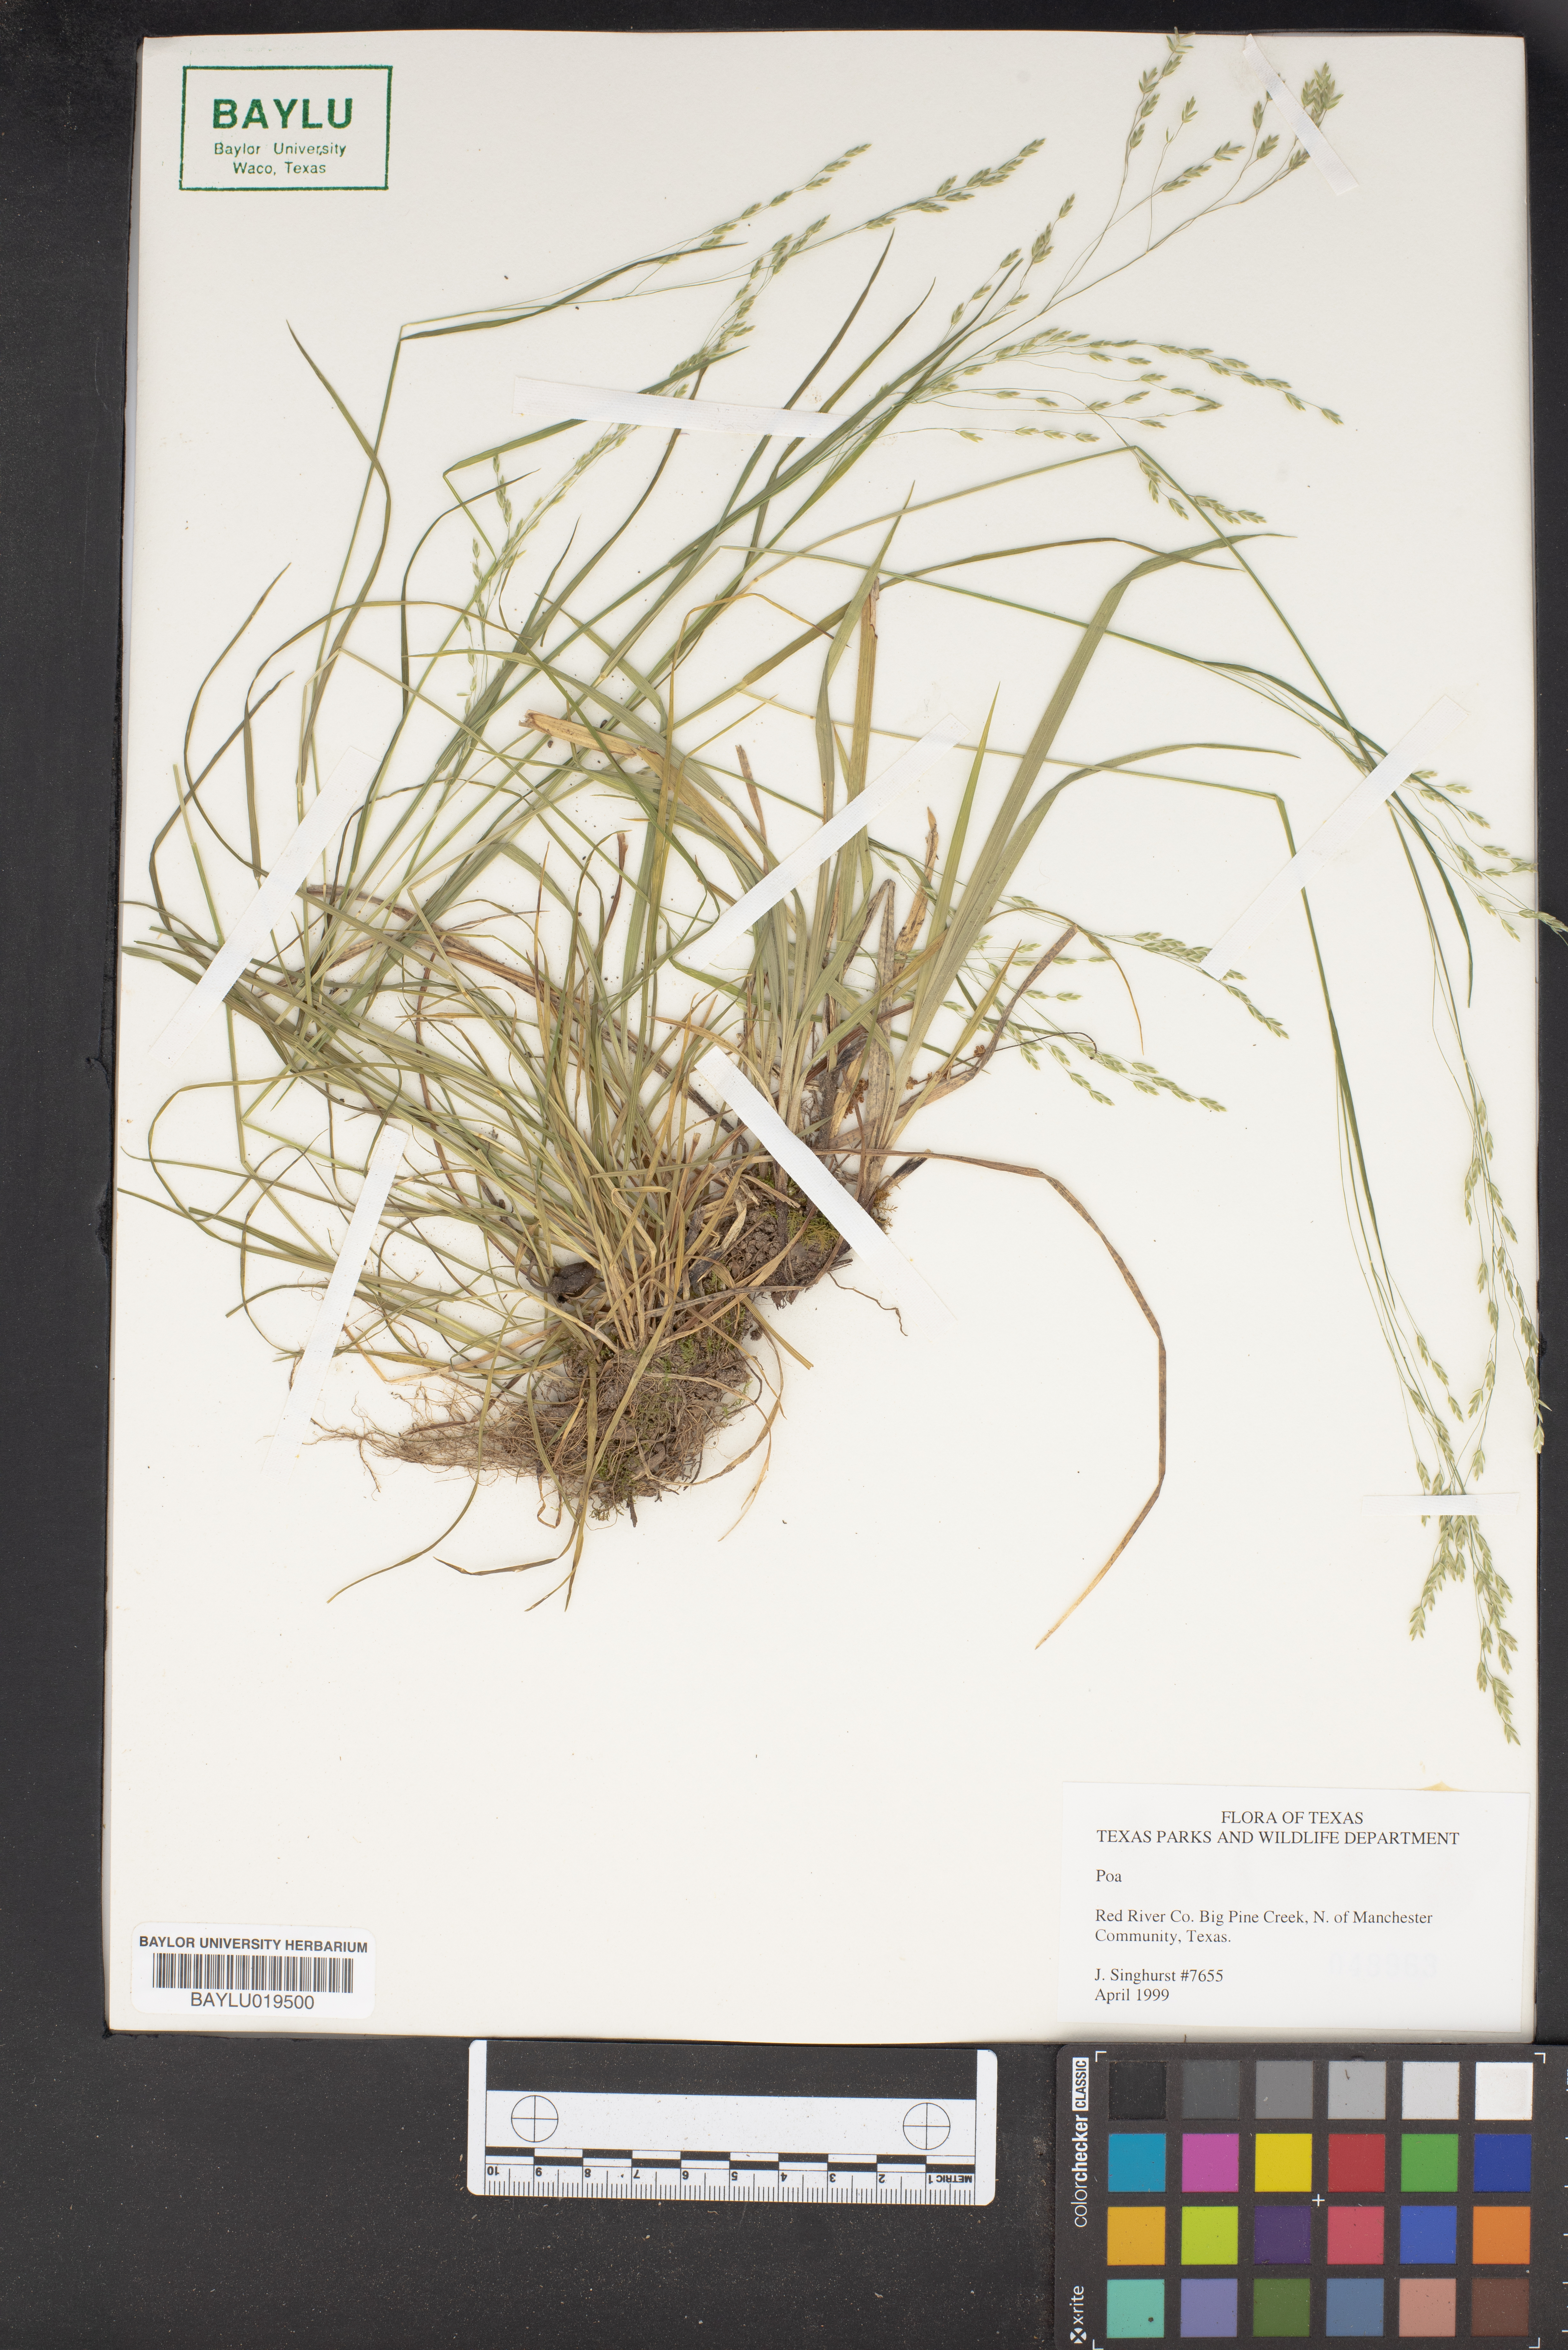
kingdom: Plantae
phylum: Tracheophyta
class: Liliopsida
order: Poales
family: Poaceae
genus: Poa
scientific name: Poa
